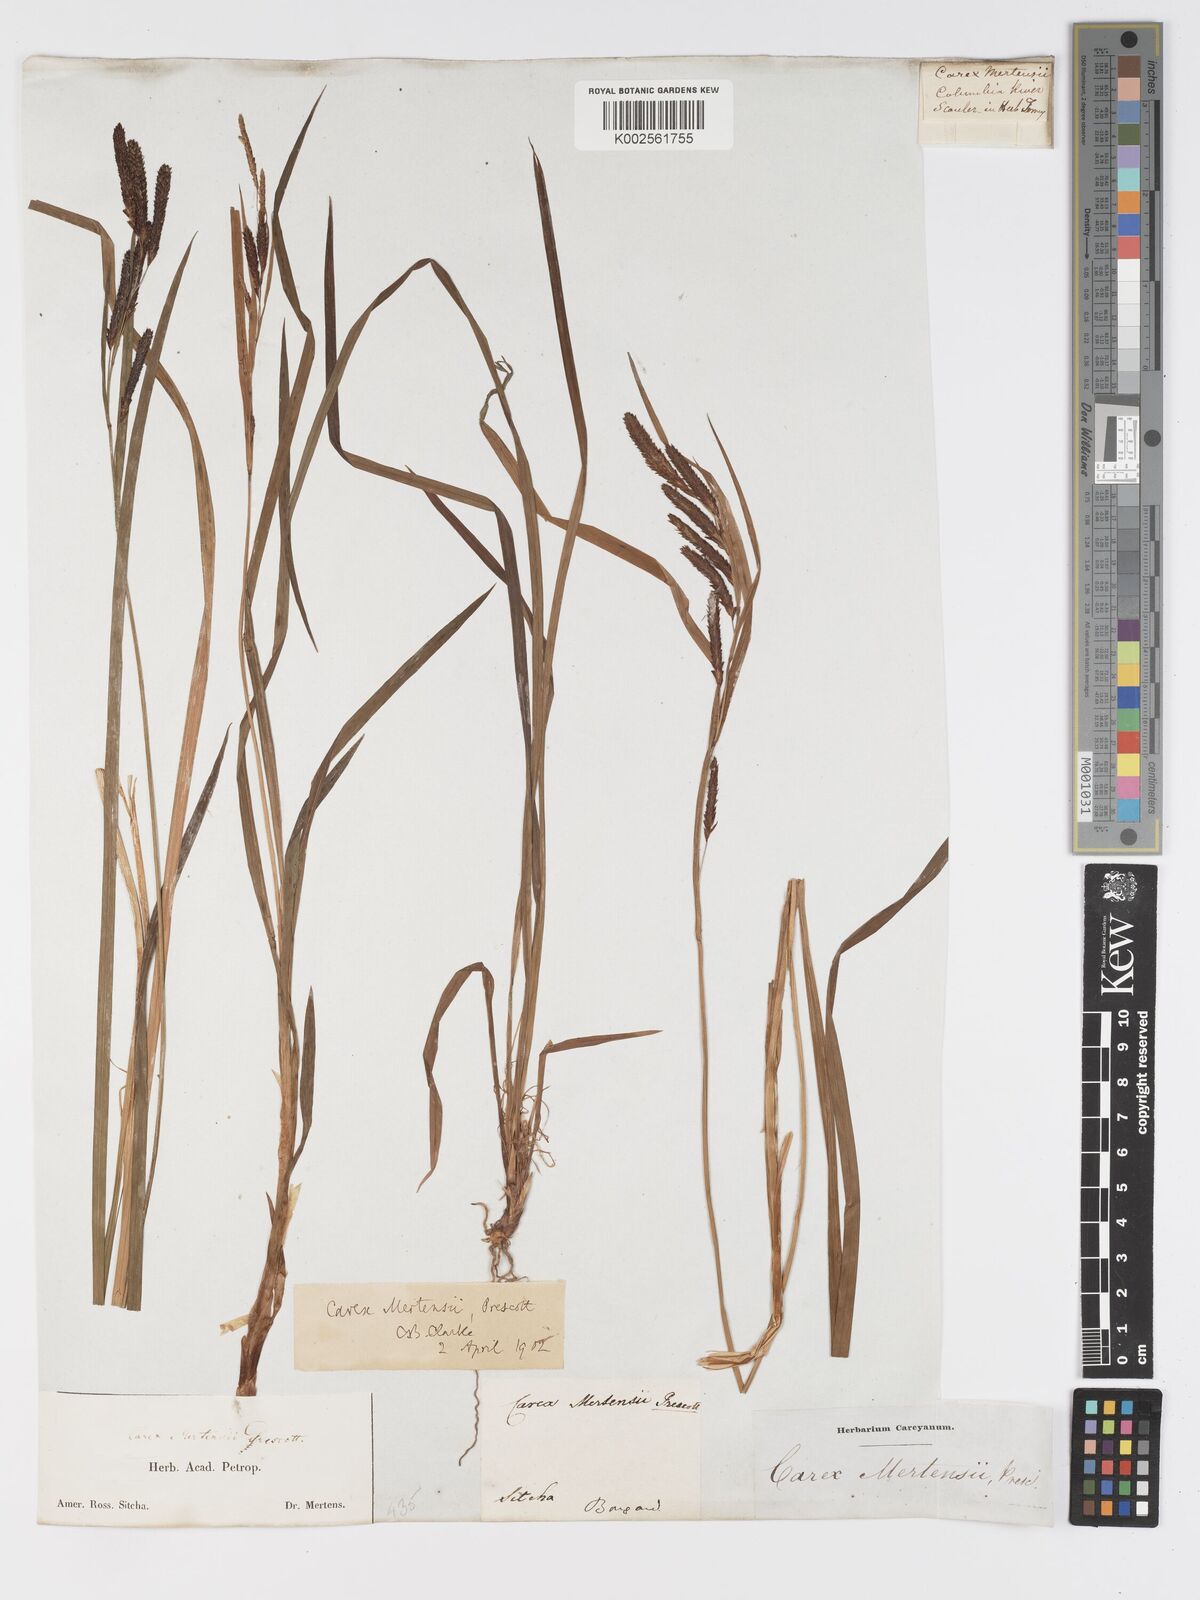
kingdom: Plantae
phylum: Tracheophyta
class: Liliopsida
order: Poales
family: Cyperaceae
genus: Carex
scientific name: Carex mertensii
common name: Mertens' sedge
